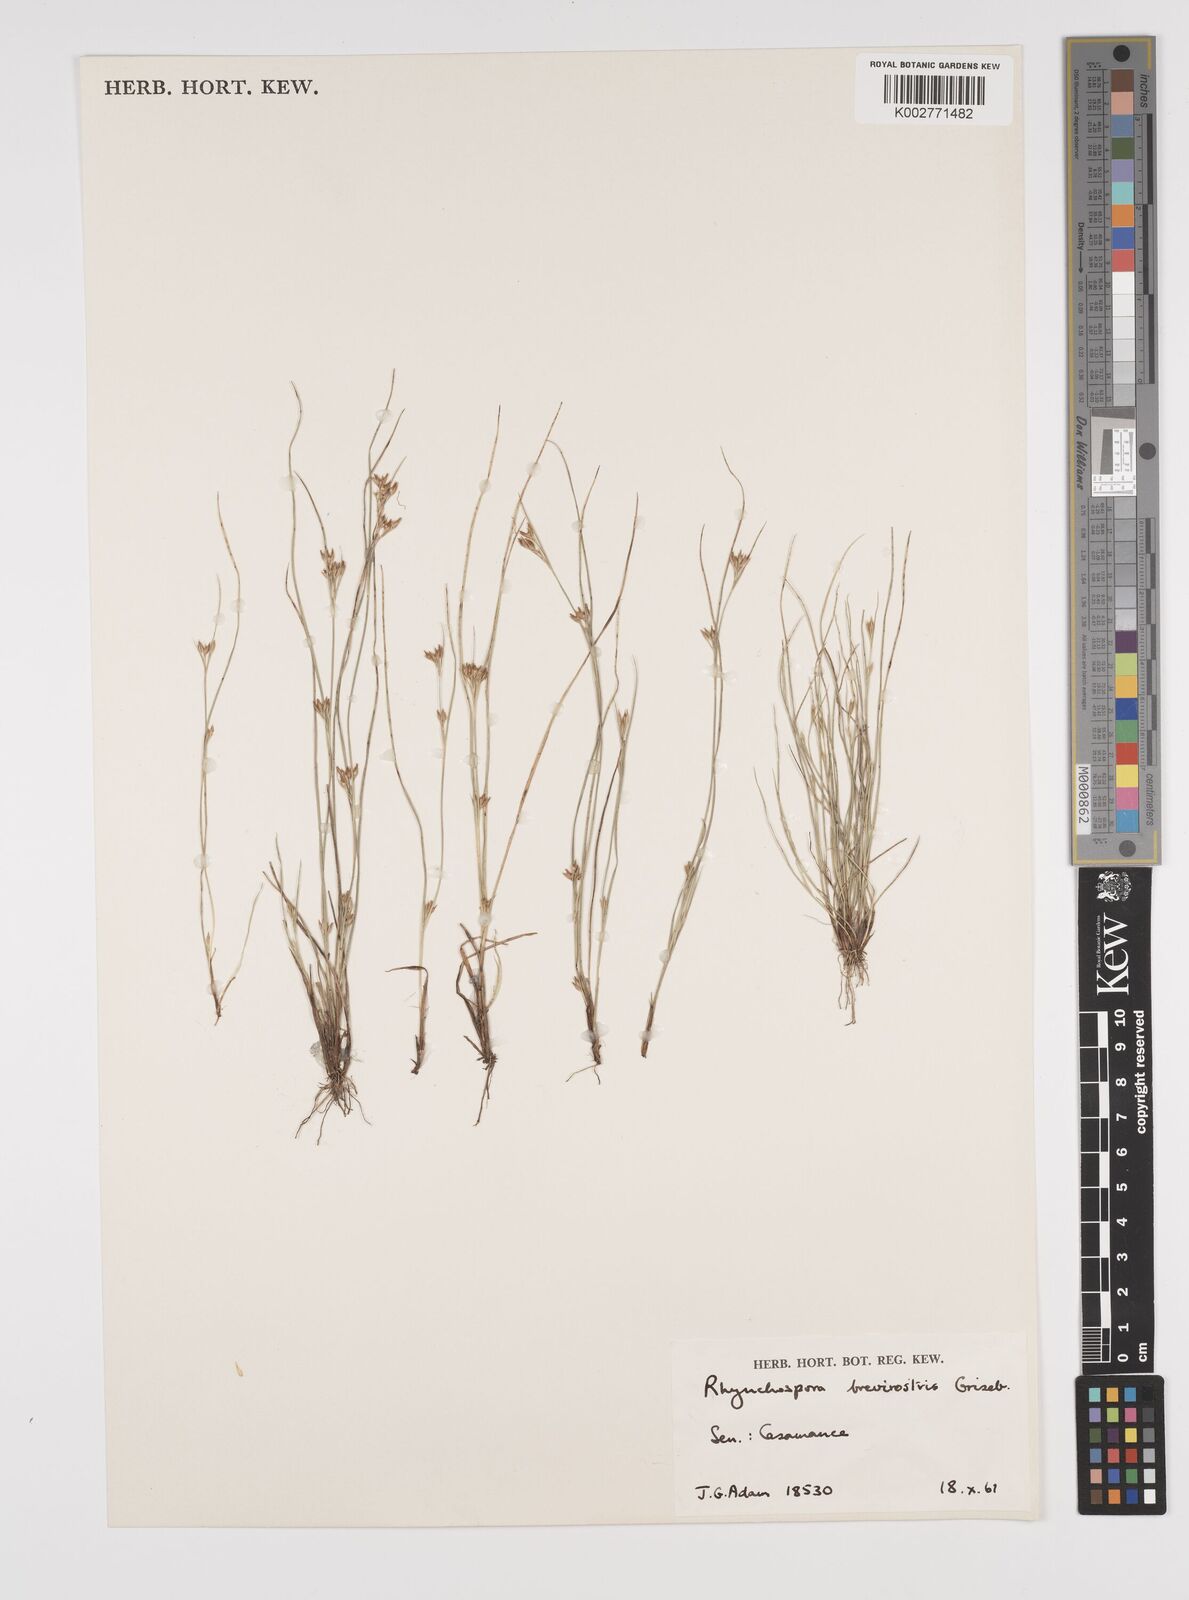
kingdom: Plantae
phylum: Tracheophyta
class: Liliopsida
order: Poales
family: Cyperaceae
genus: Rhynchospora
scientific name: Rhynchospora brevirostris
